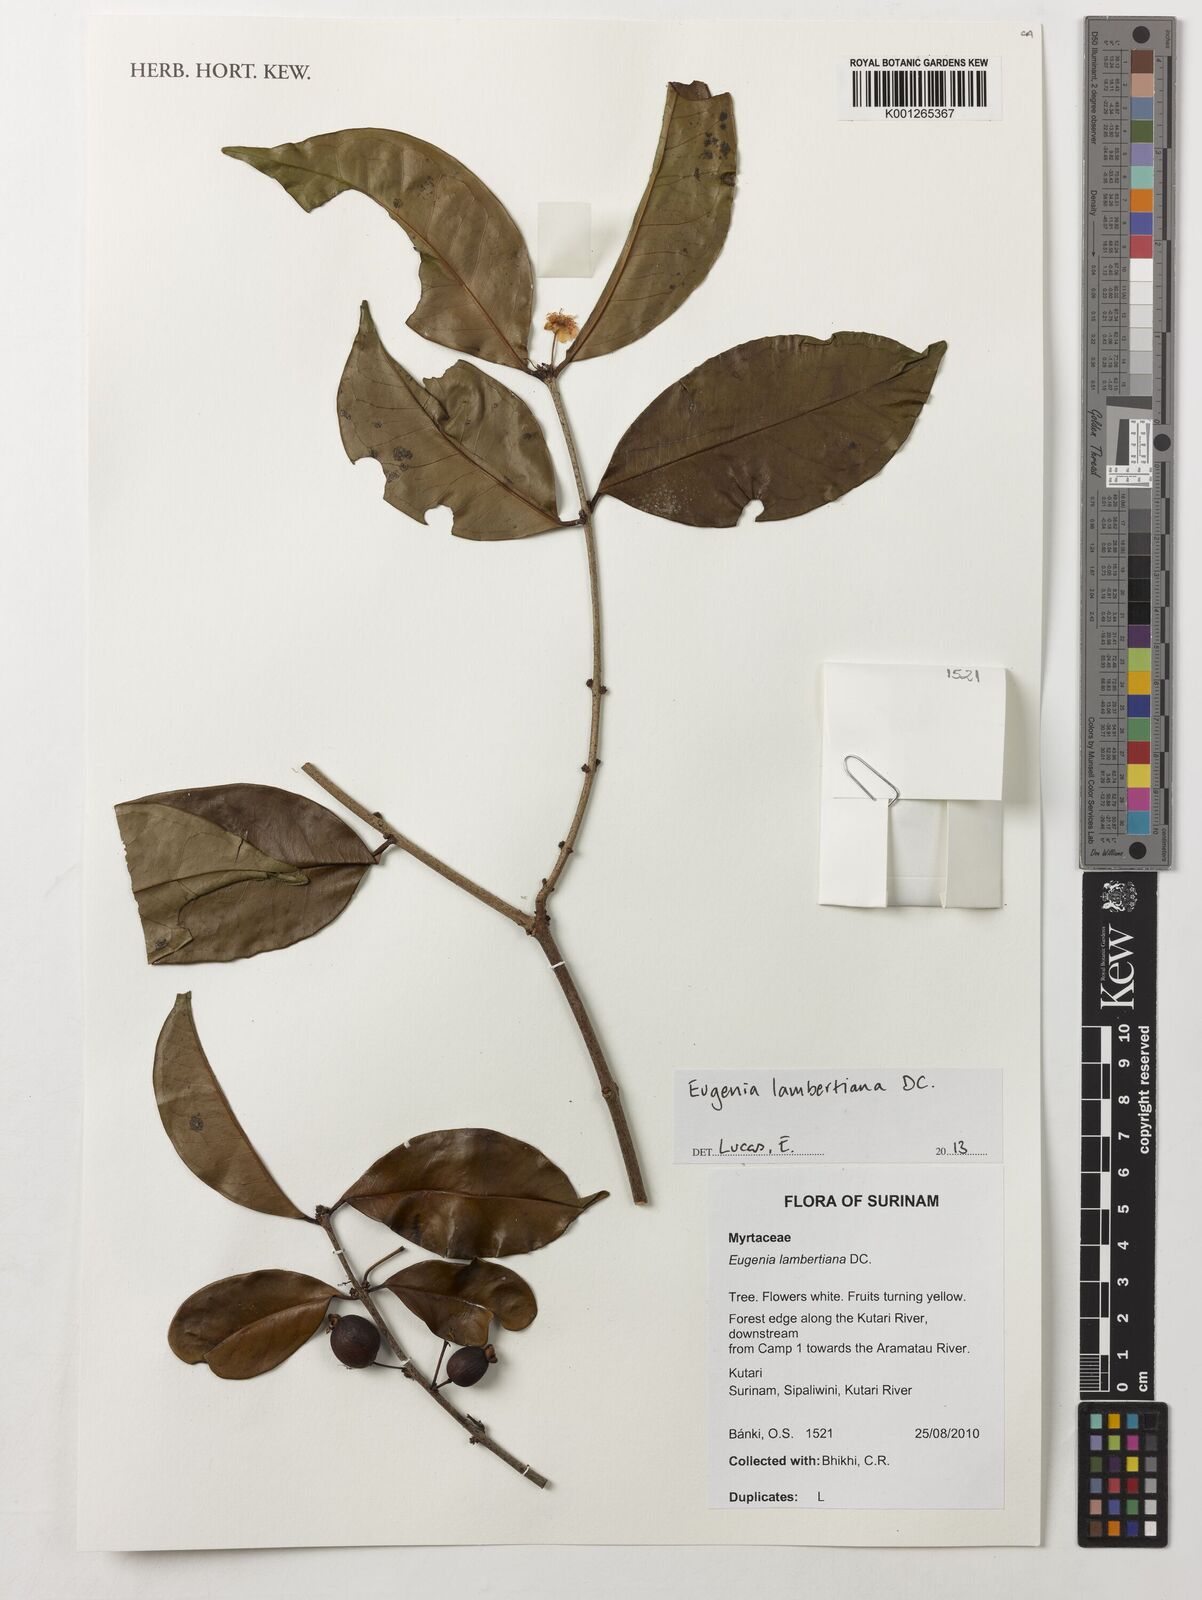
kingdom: Plantae
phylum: Tracheophyta
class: Magnoliopsida
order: Myrtales
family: Myrtaceae
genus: Eugenia
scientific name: Eugenia lambertiana
